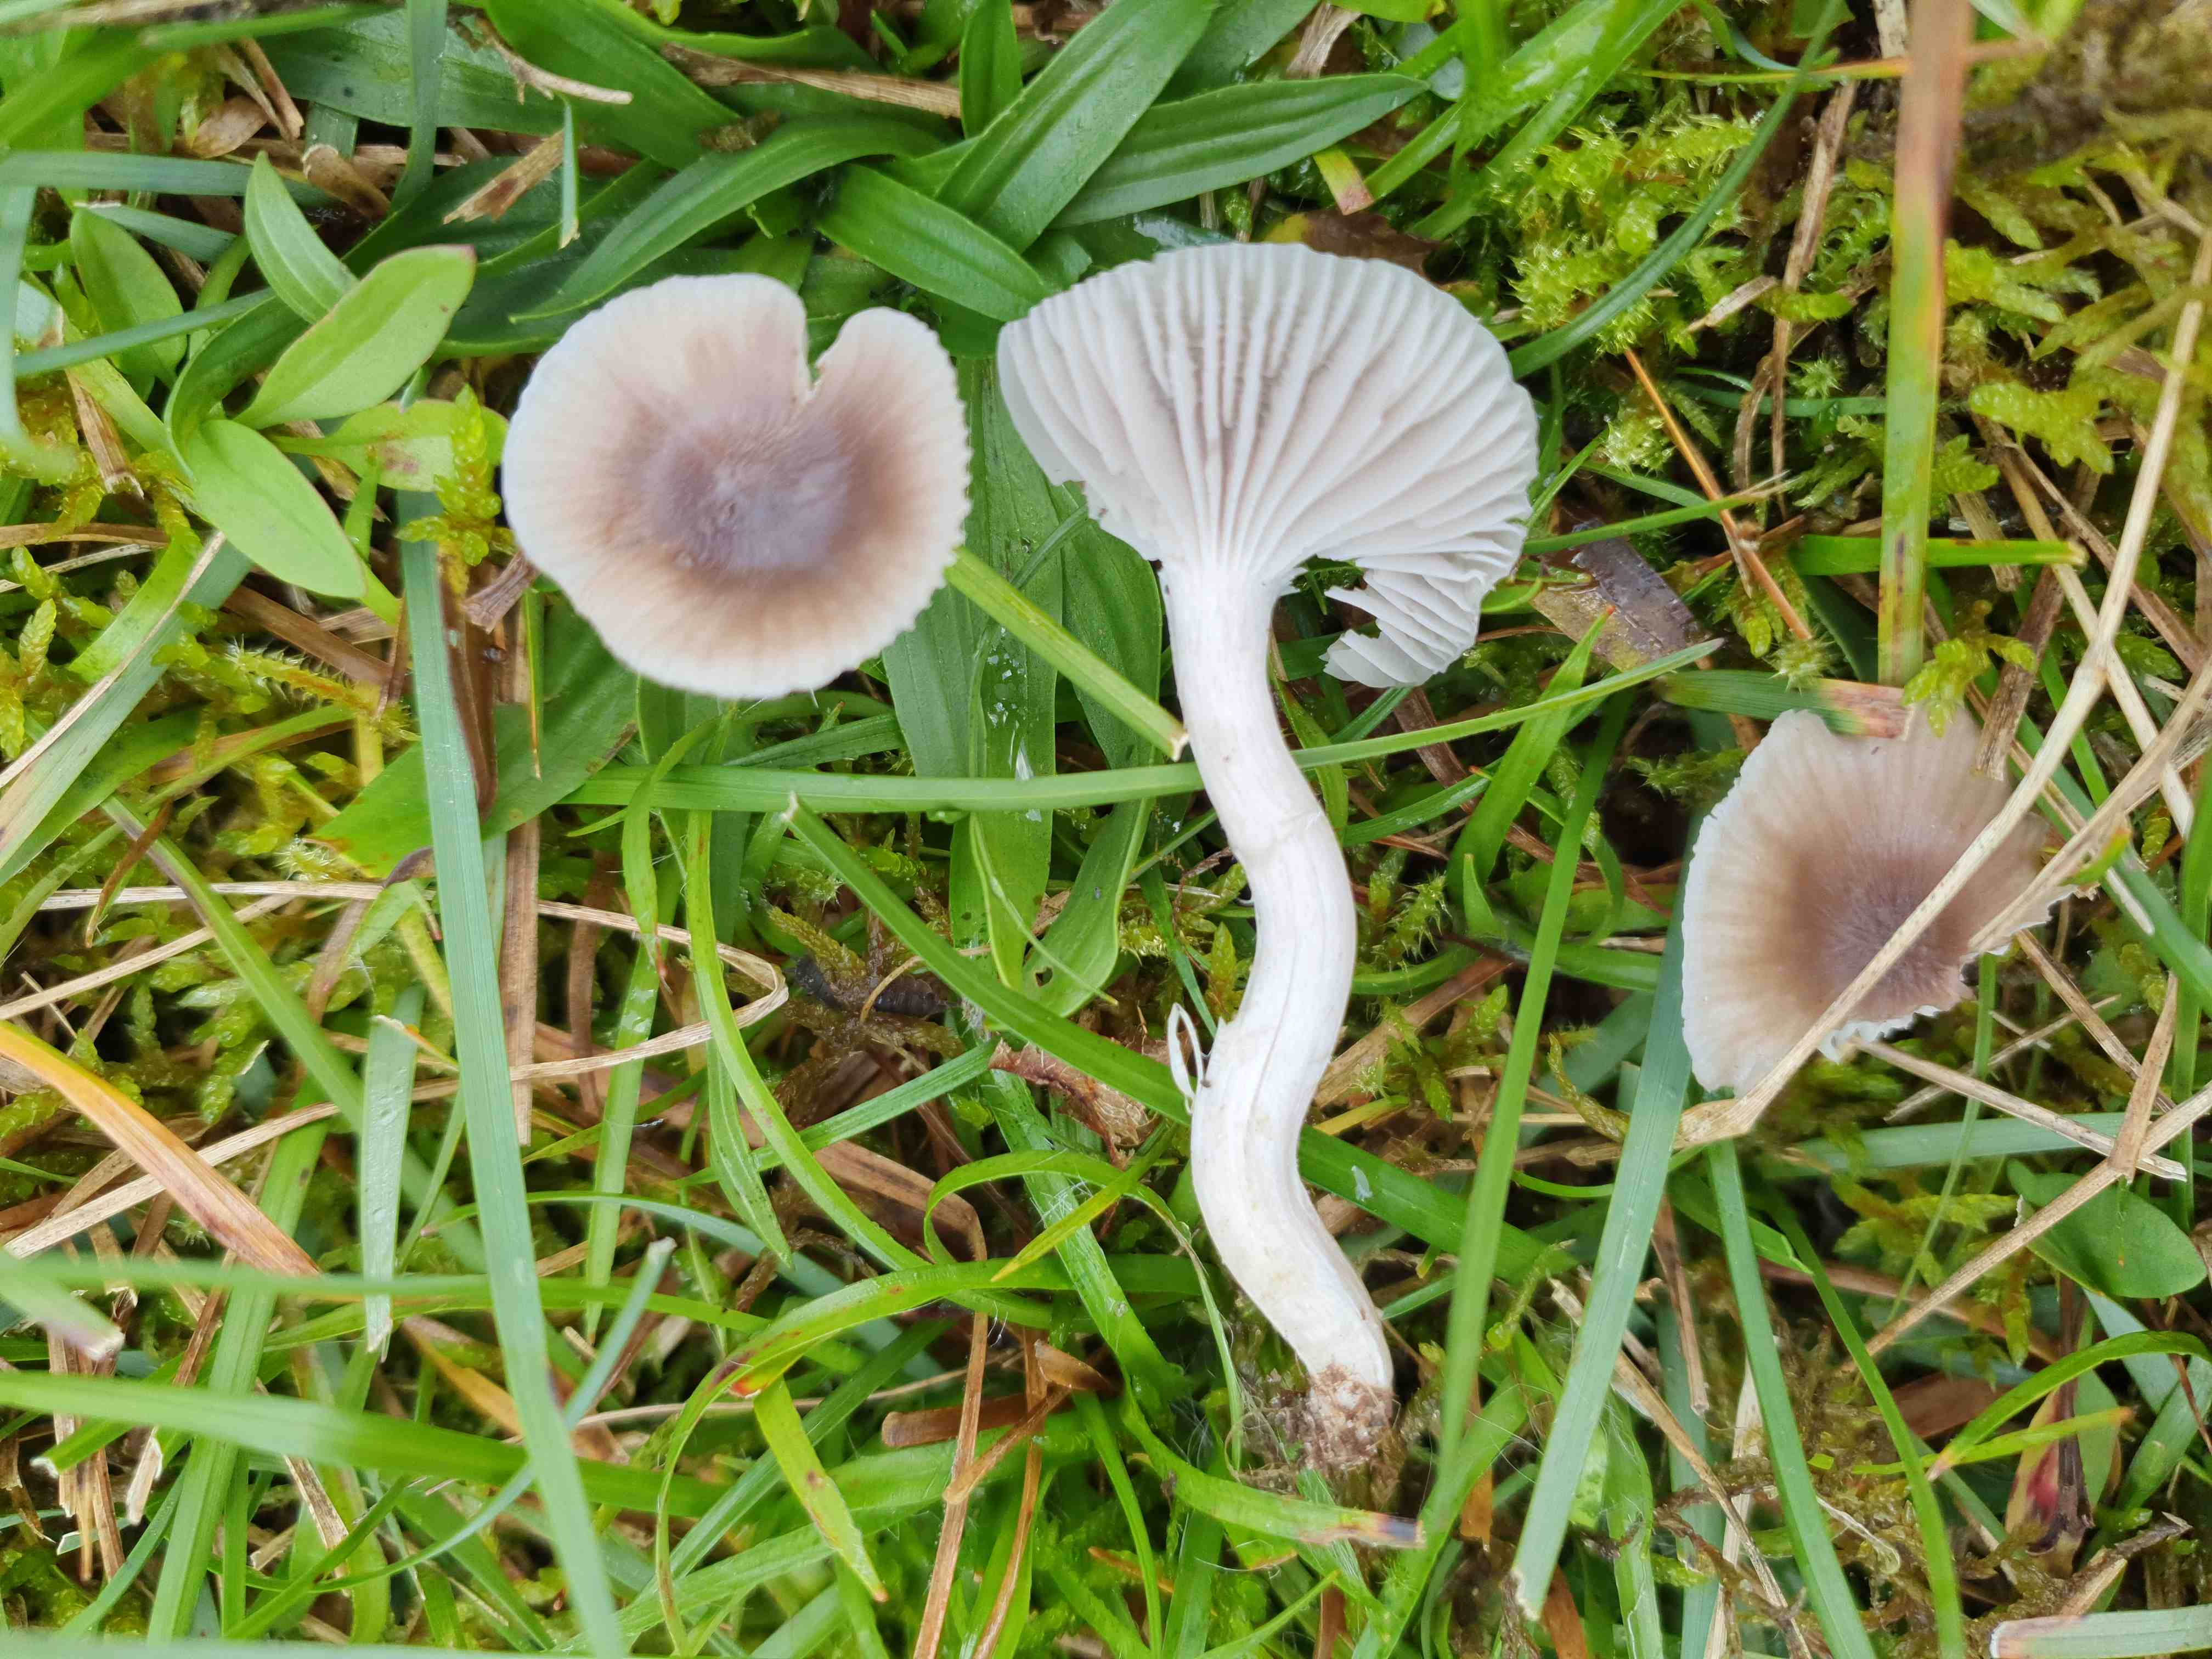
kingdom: Fungi
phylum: Basidiomycota
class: Agaricomycetes
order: Agaricales
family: Hygrophoraceae
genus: Cuphophyllus
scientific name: Cuphophyllus flavipes
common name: gulfodet vokshat
